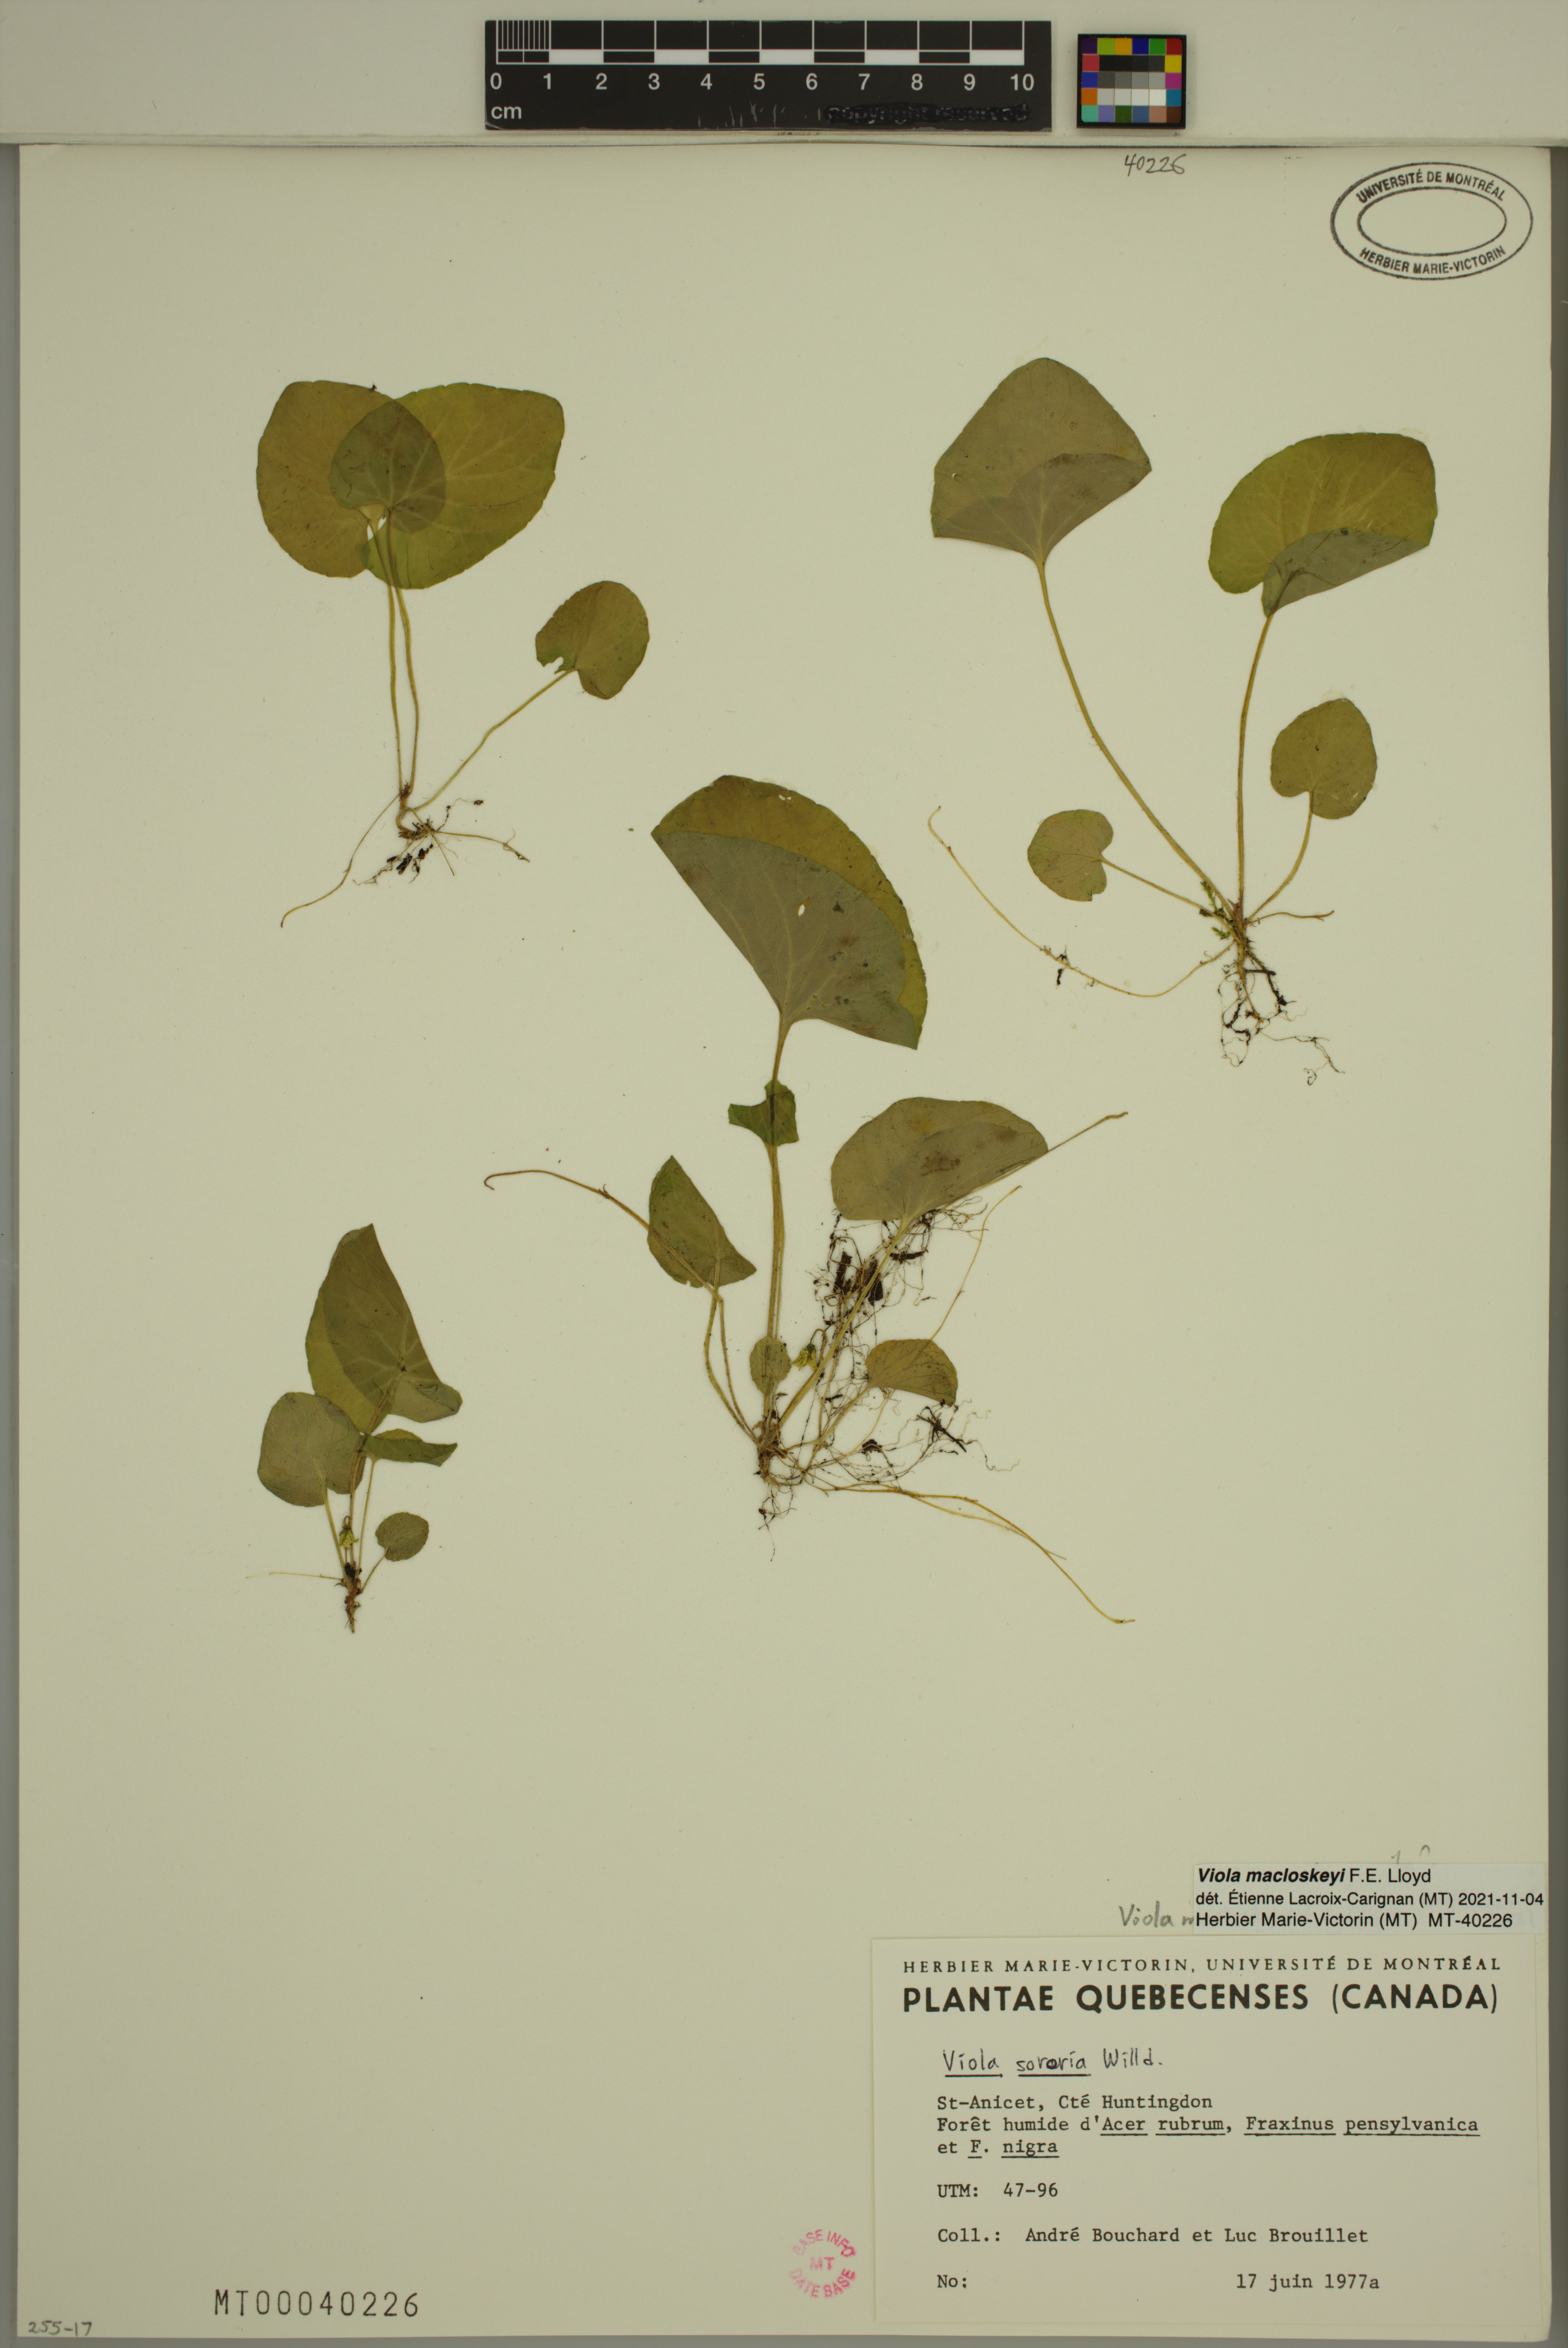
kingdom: Plantae
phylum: Tracheophyta
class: Magnoliopsida
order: Malpighiales
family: Violaceae
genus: Viola
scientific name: Viola macloskeyi
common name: Macloskey's violet
